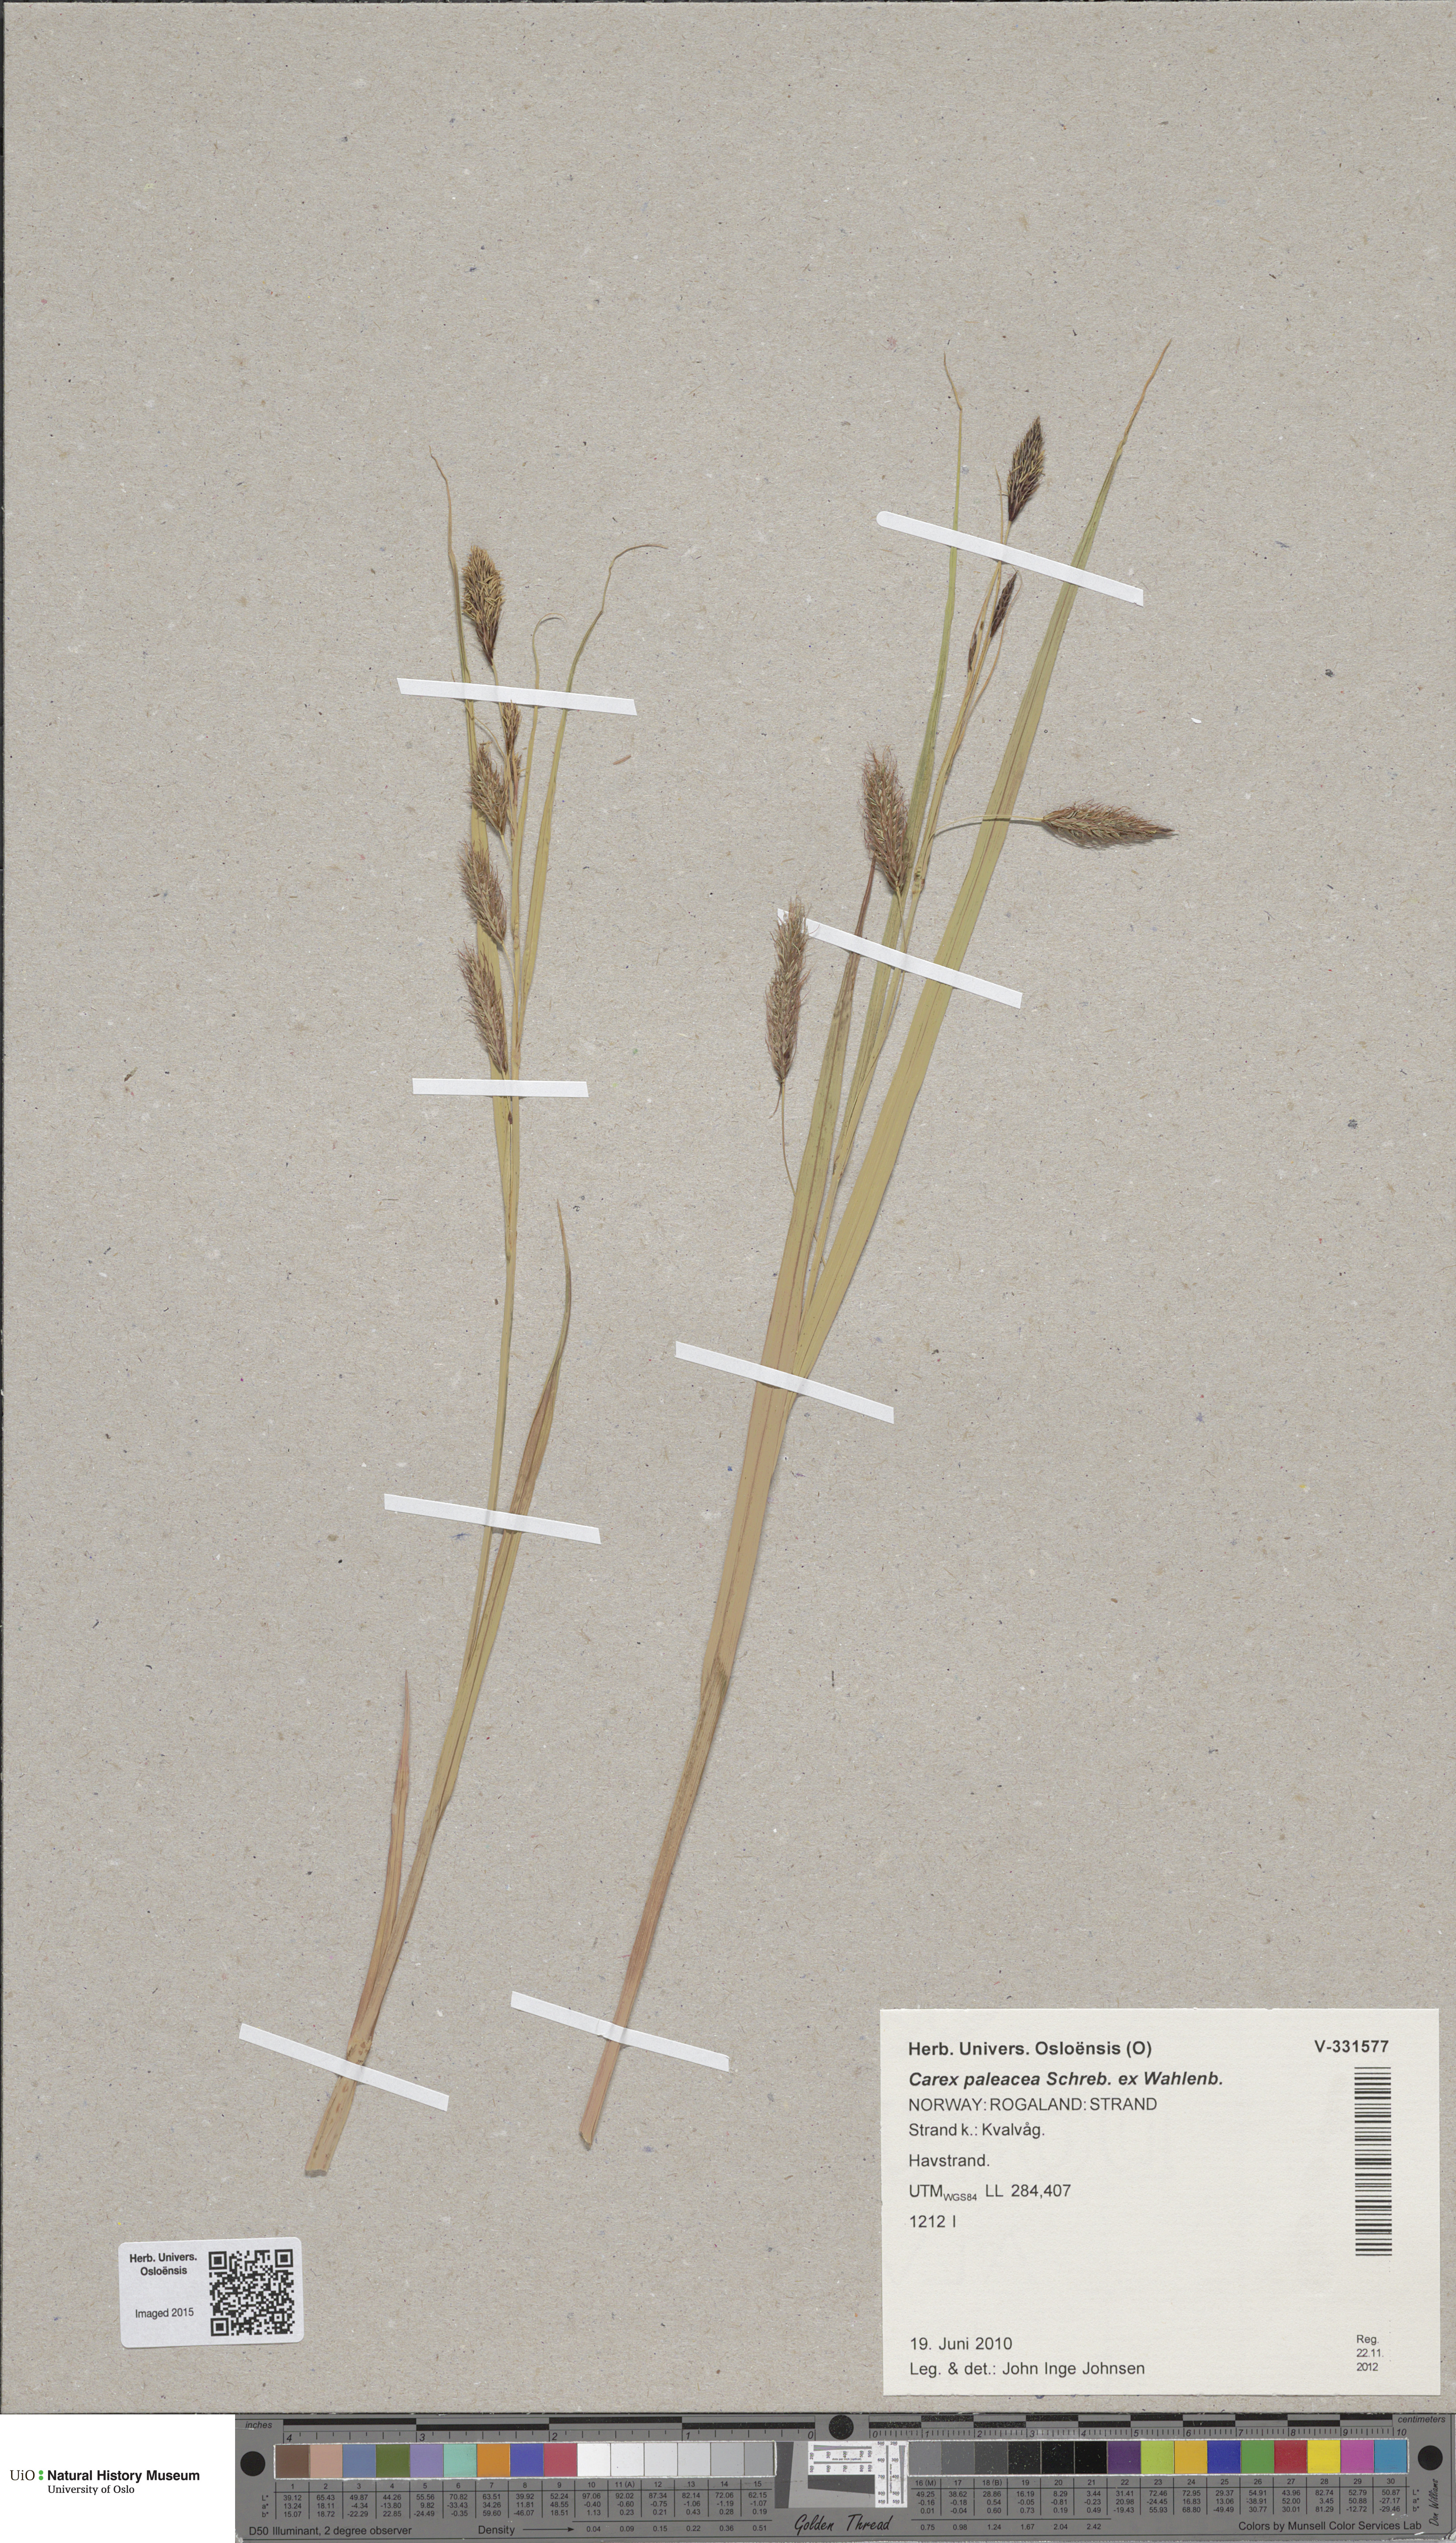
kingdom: Plantae
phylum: Tracheophyta
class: Liliopsida
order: Poales
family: Cyperaceae
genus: Carex
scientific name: Carex paleacea
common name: Chaffy sedge
